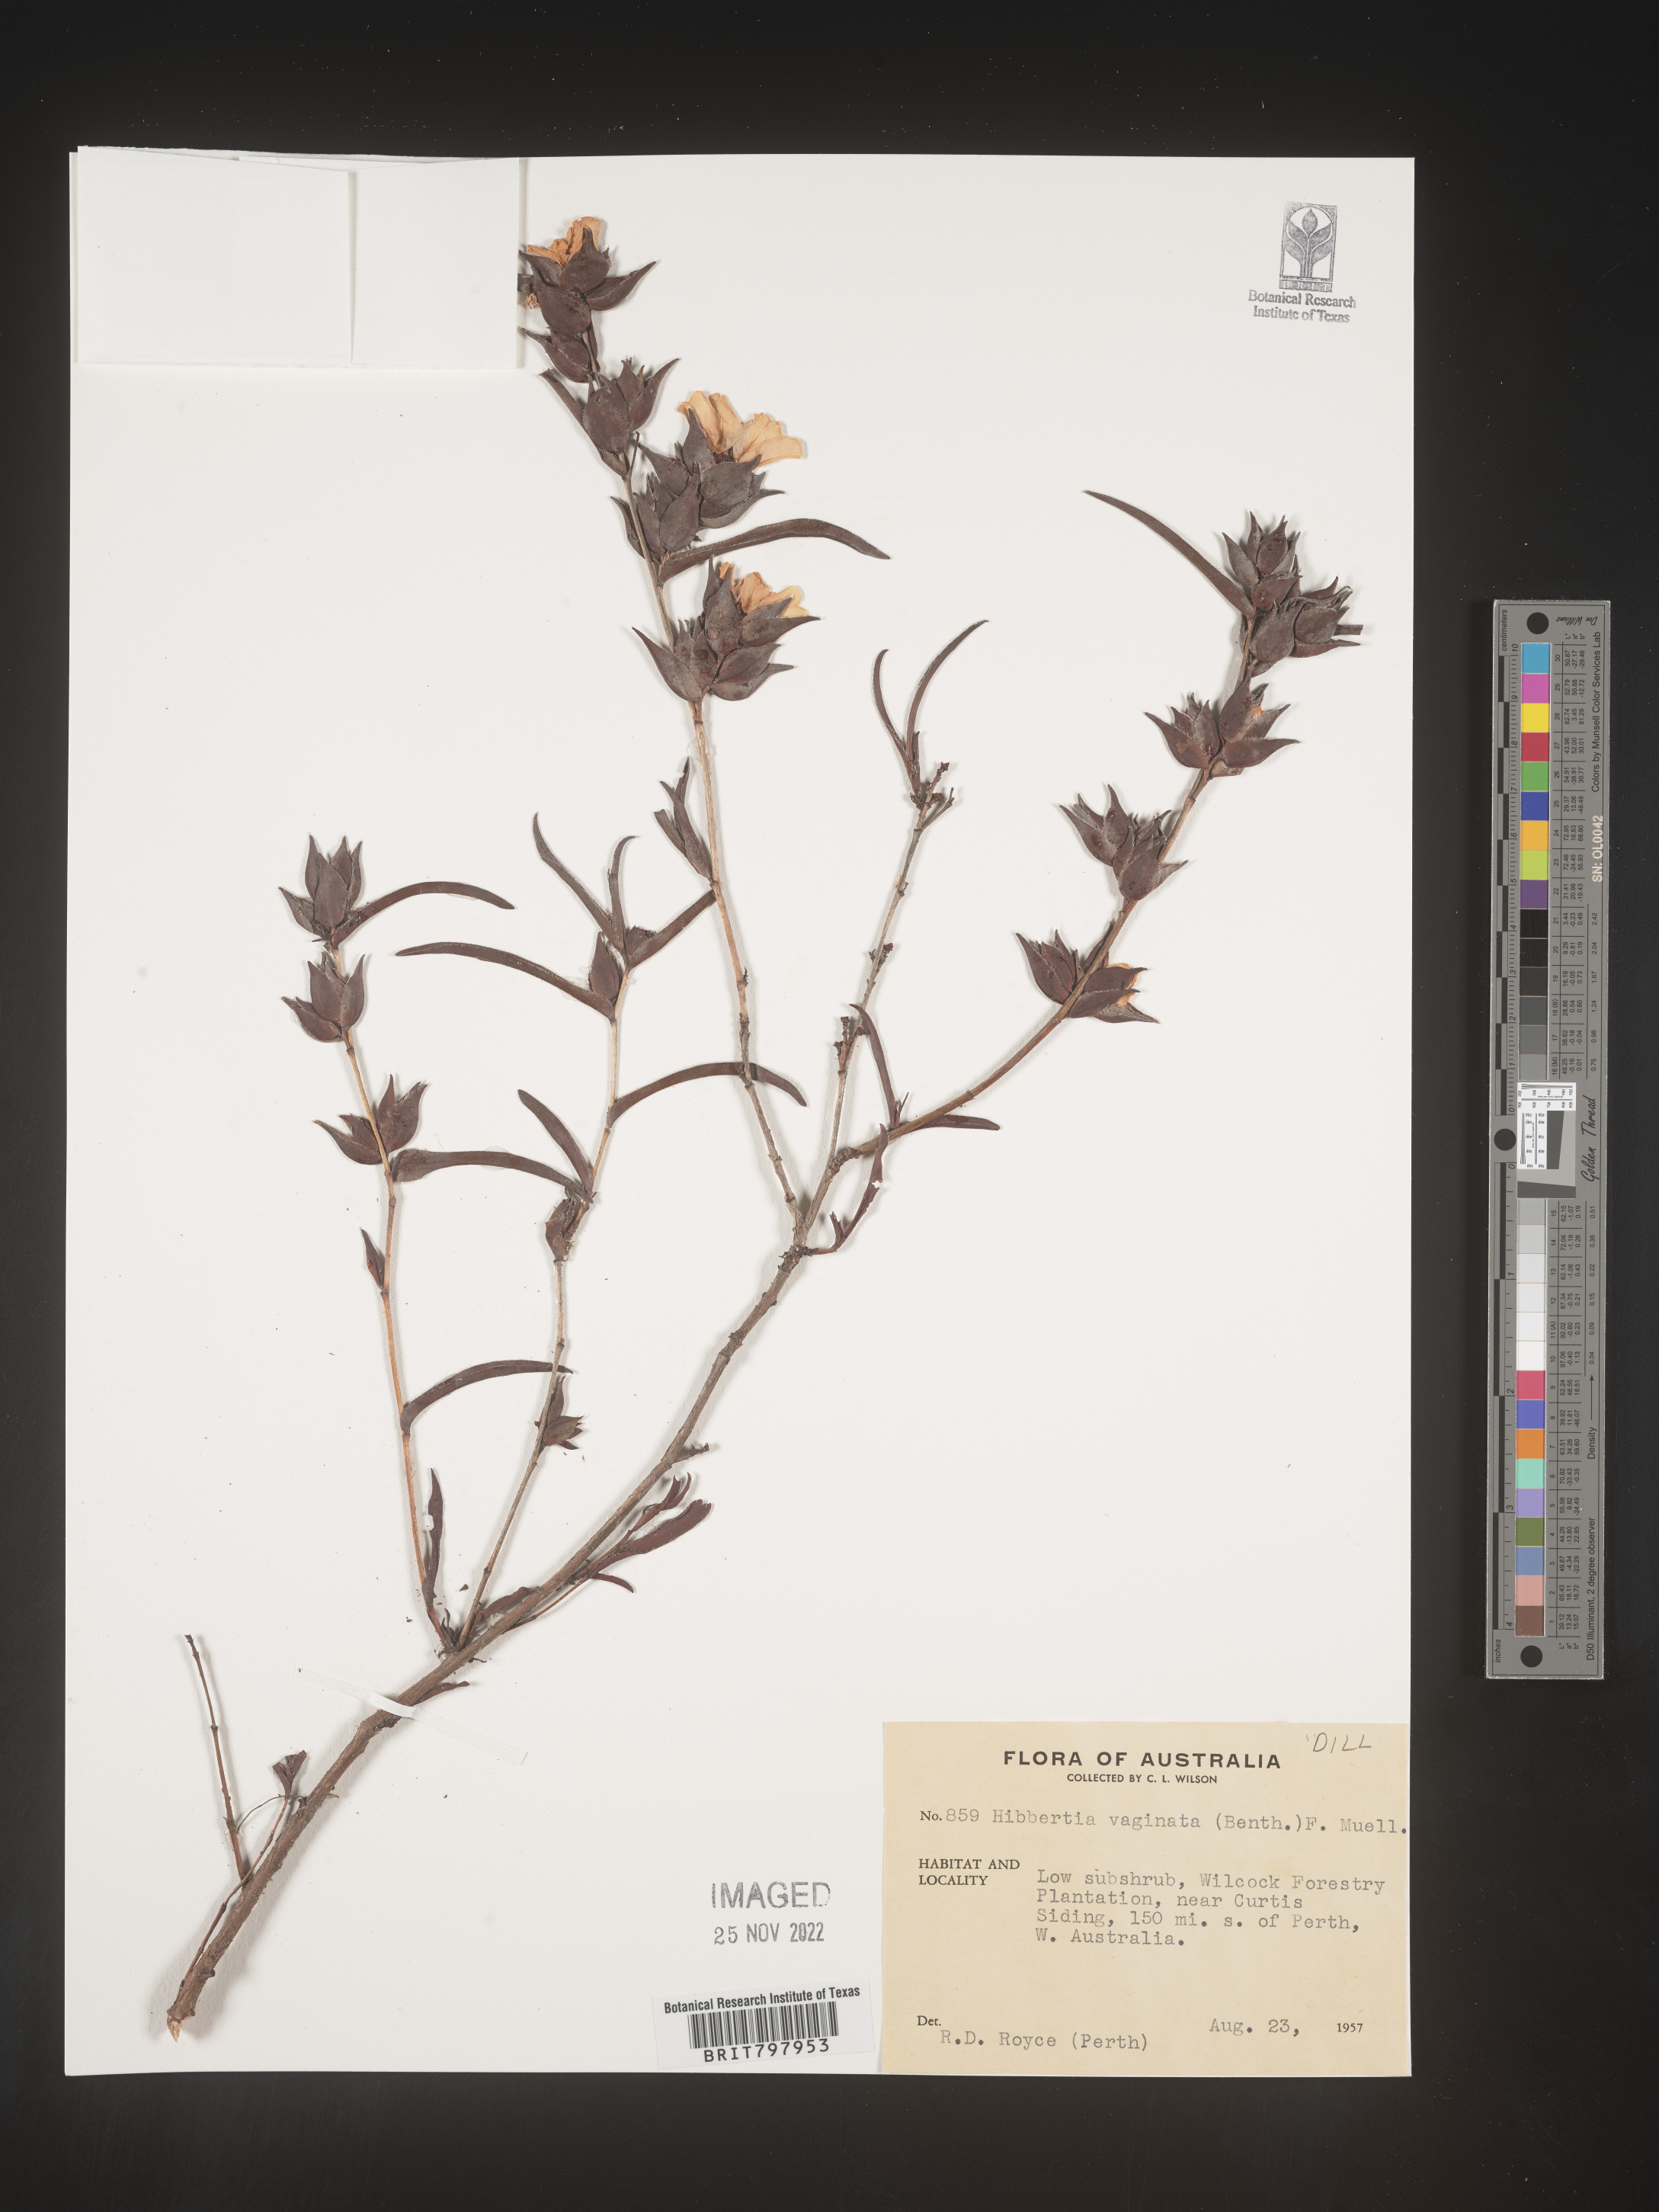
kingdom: Plantae
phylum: Tracheophyta
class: Magnoliopsida
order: Dilleniales
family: Dilleniaceae
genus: Hibbertia
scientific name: Hibbertia
